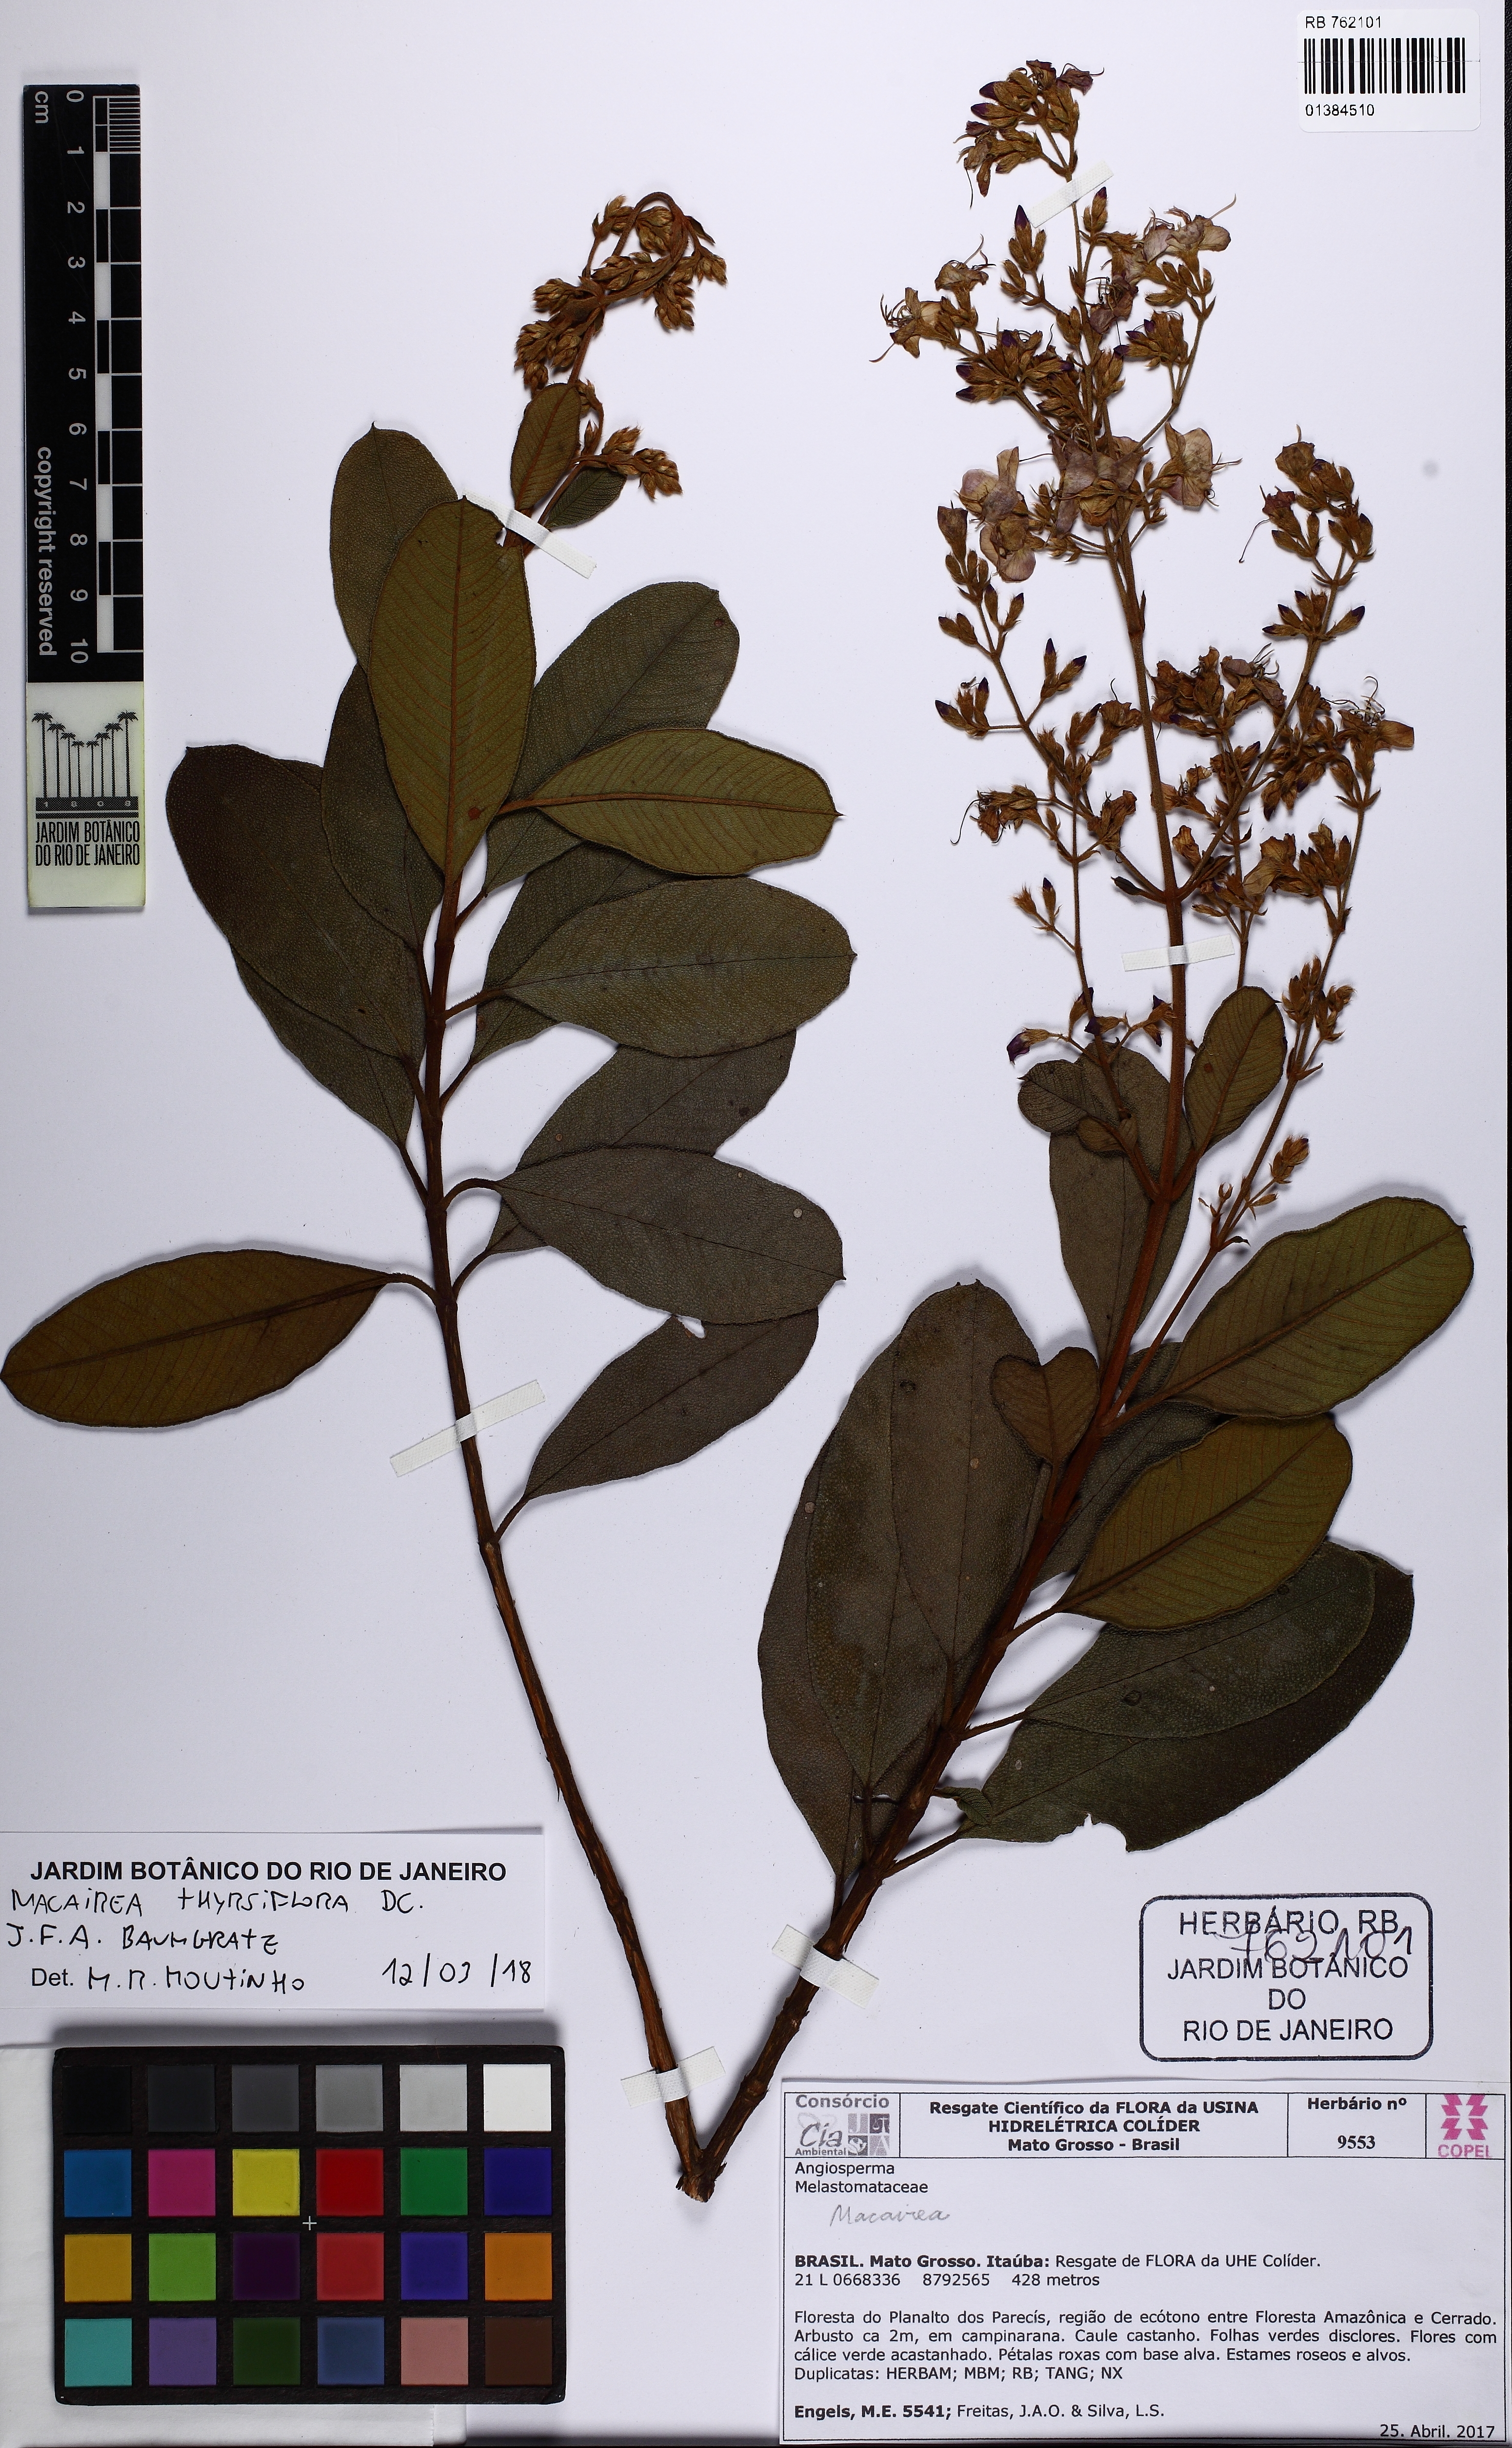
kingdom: Plantae
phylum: Tracheophyta
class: Magnoliopsida
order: Myrtales
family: Melastomataceae
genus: Macairea
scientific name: Macairea thyrsiflora
